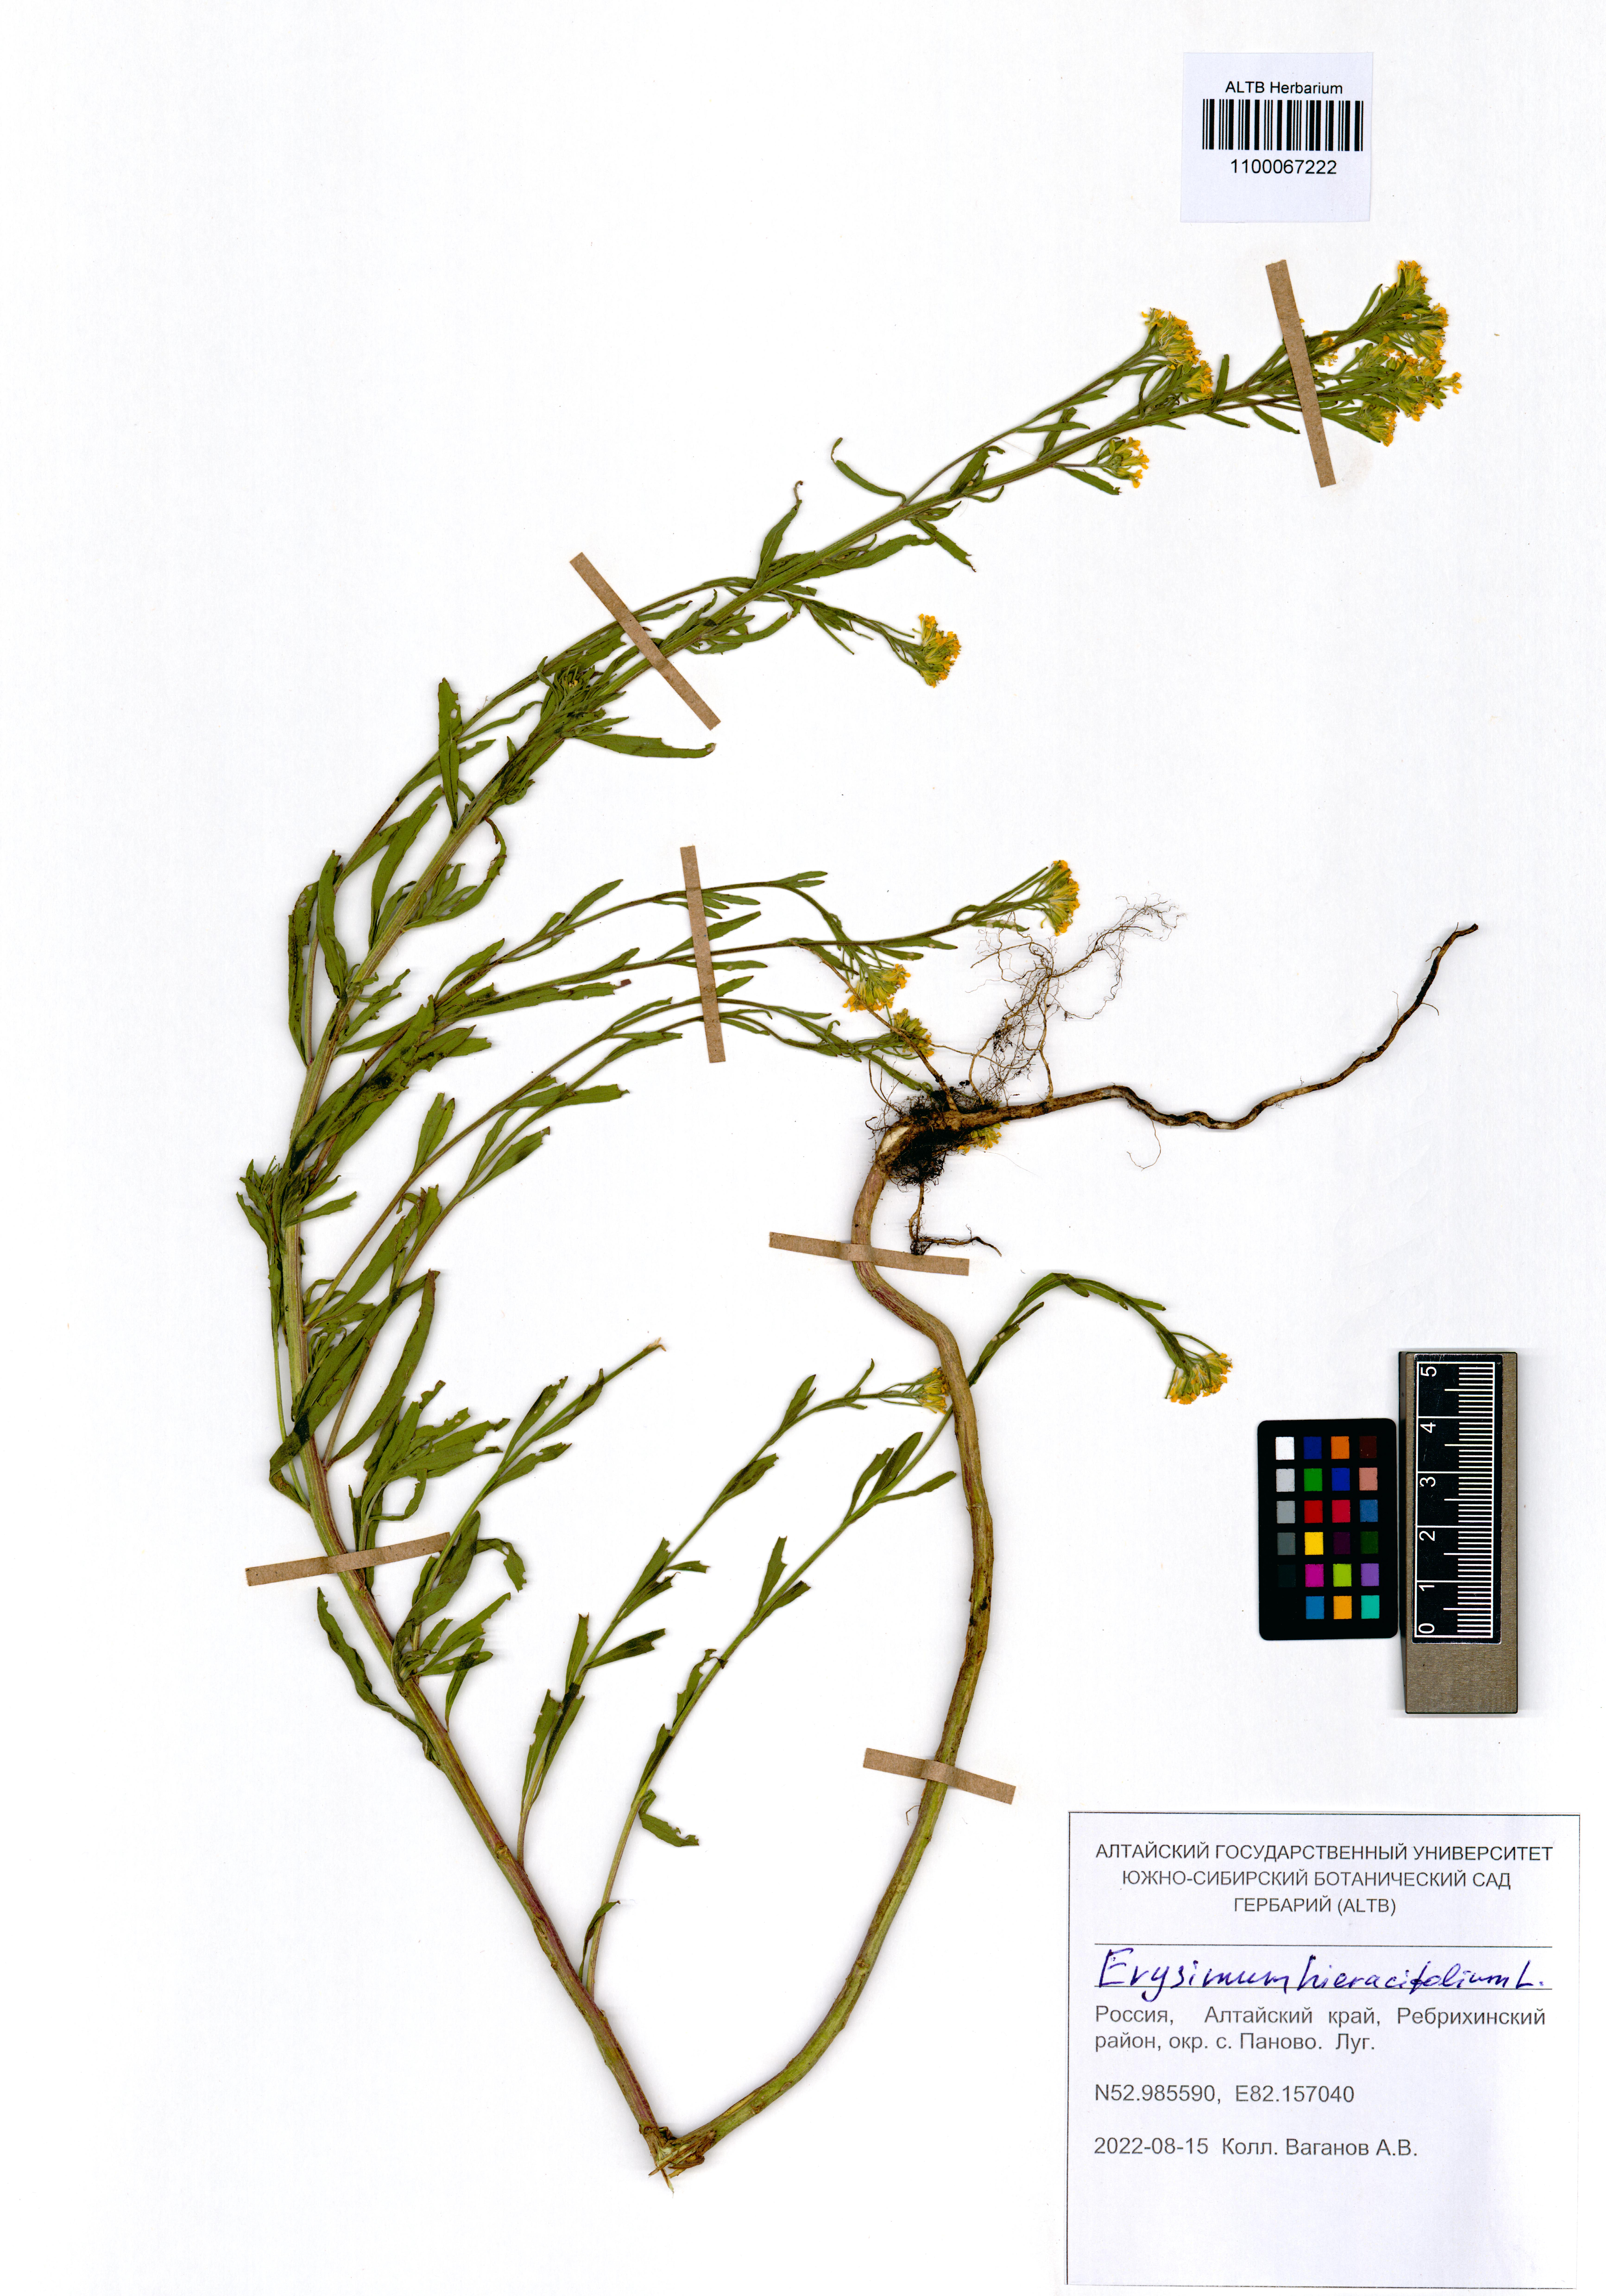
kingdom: Plantae
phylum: Tracheophyta
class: Magnoliopsida
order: Brassicales
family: Brassicaceae
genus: Erysimum
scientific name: Erysimum hieraciifolium
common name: European wallflower
